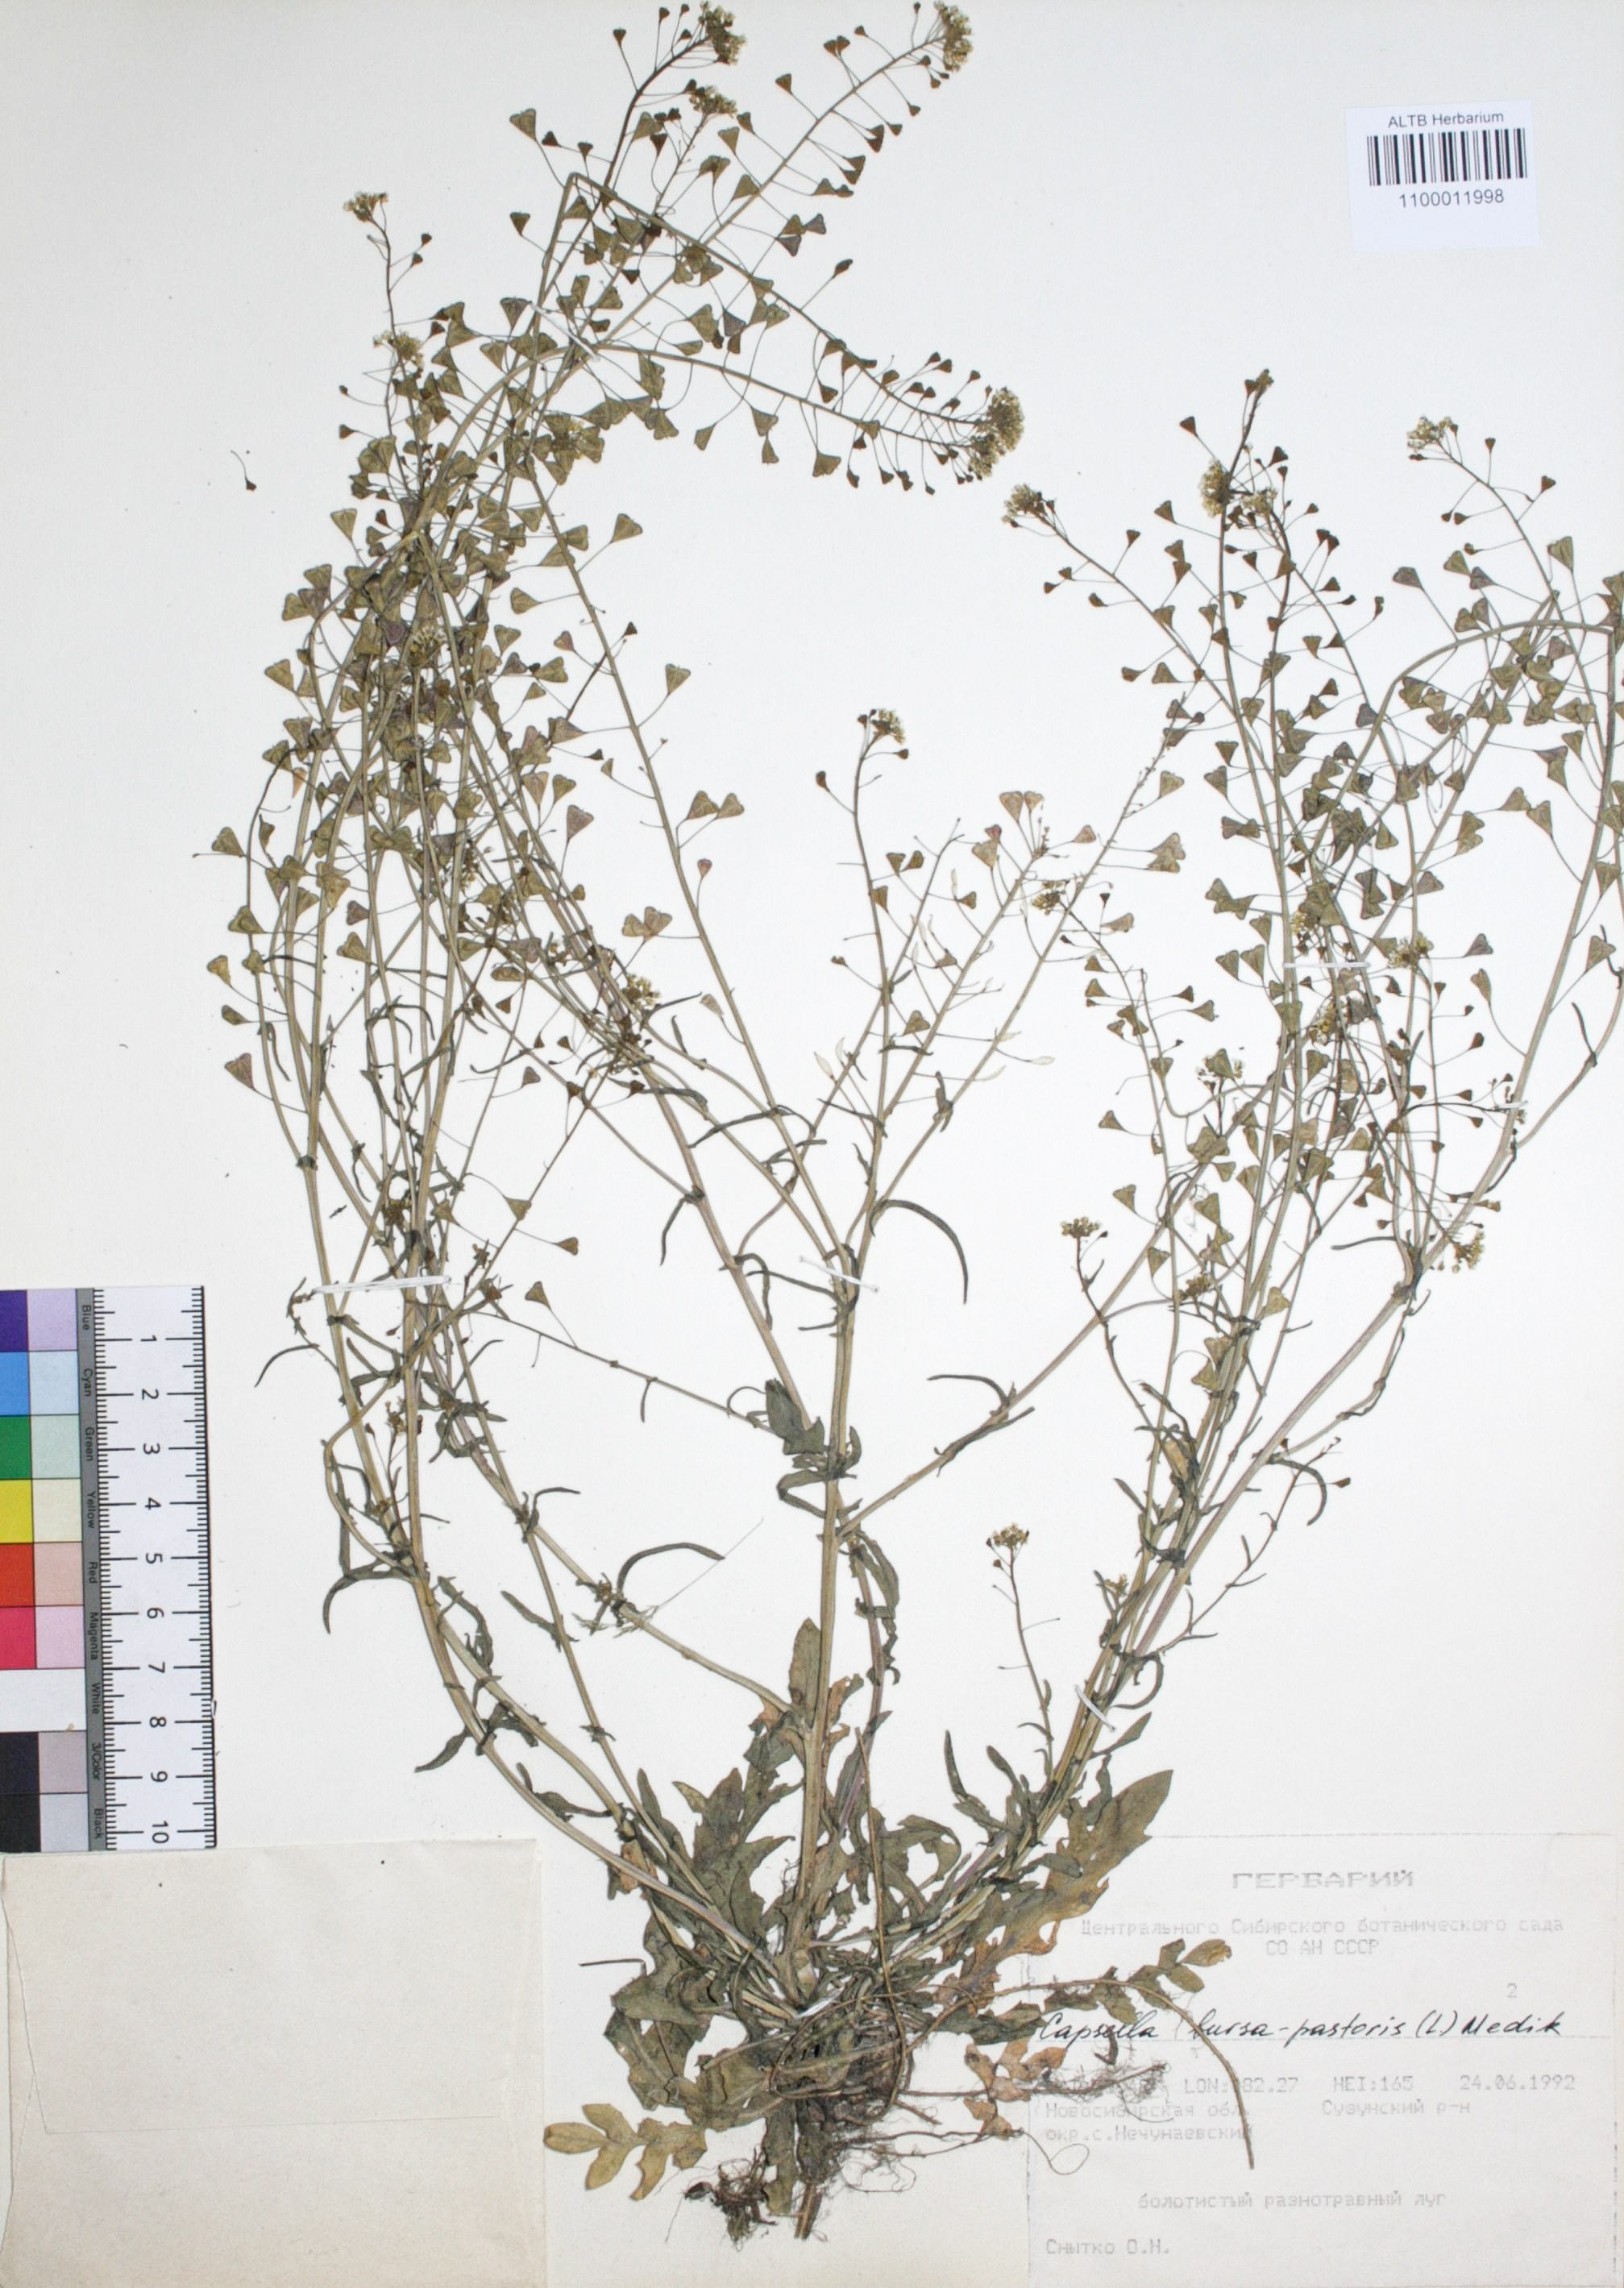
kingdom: Plantae
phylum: Tracheophyta
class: Magnoliopsida
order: Brassicales
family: Brassicaceae
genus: Capsella
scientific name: Capsella bursa-pastoris
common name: Shepherd's purse
